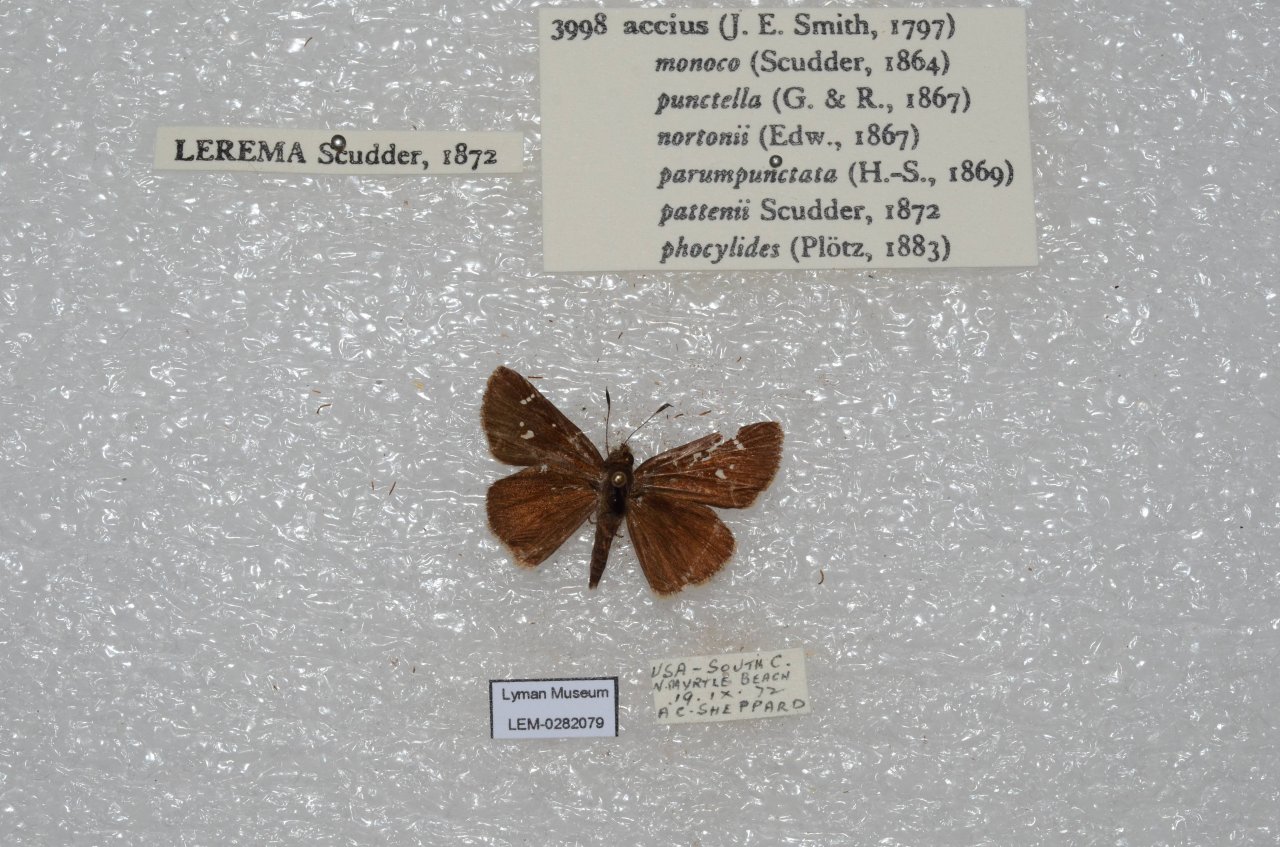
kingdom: Animalia
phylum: Arthropoda
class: Insecta
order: Lepidoptera
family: Hesperiidae
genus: Lerema
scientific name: Lerema accius
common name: Clouded Skipper
